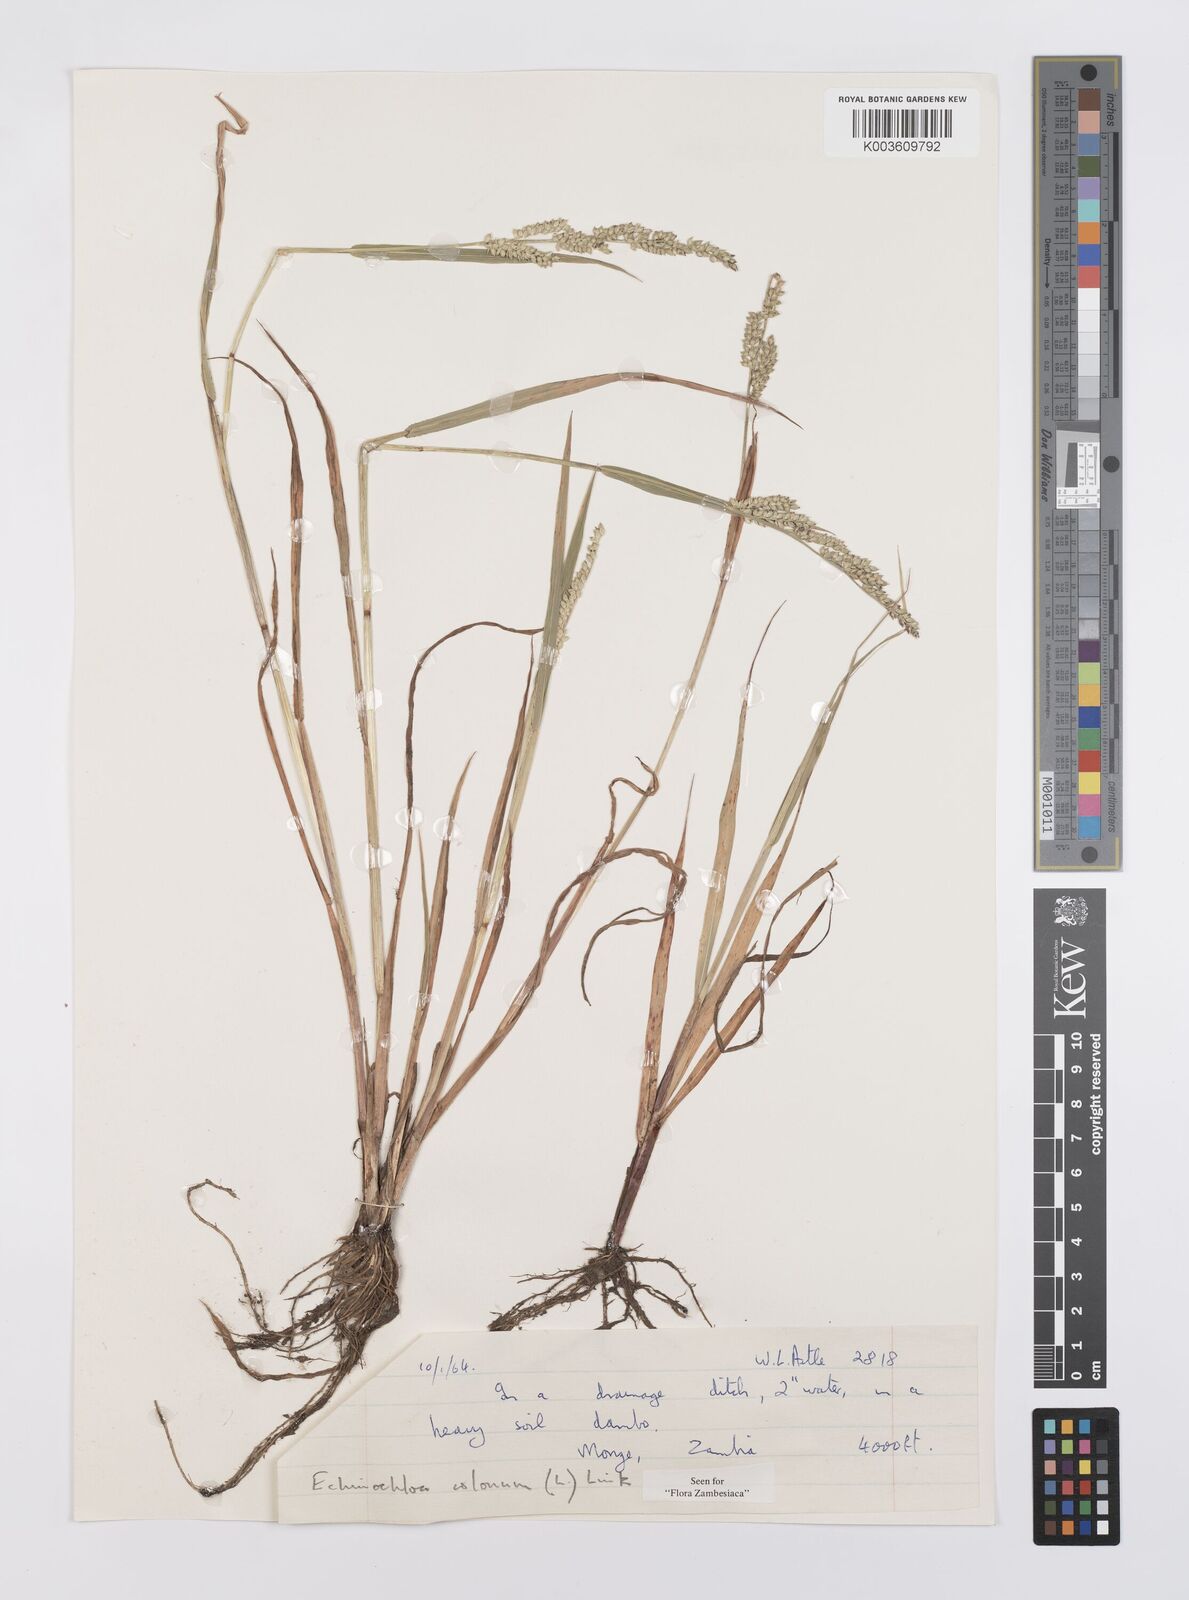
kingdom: Plantae
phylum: Tracheophyta
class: Liliopsida
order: Poales
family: Poaceae
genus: Echinochloa
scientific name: Echinochloa colonum
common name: Jungle rice
